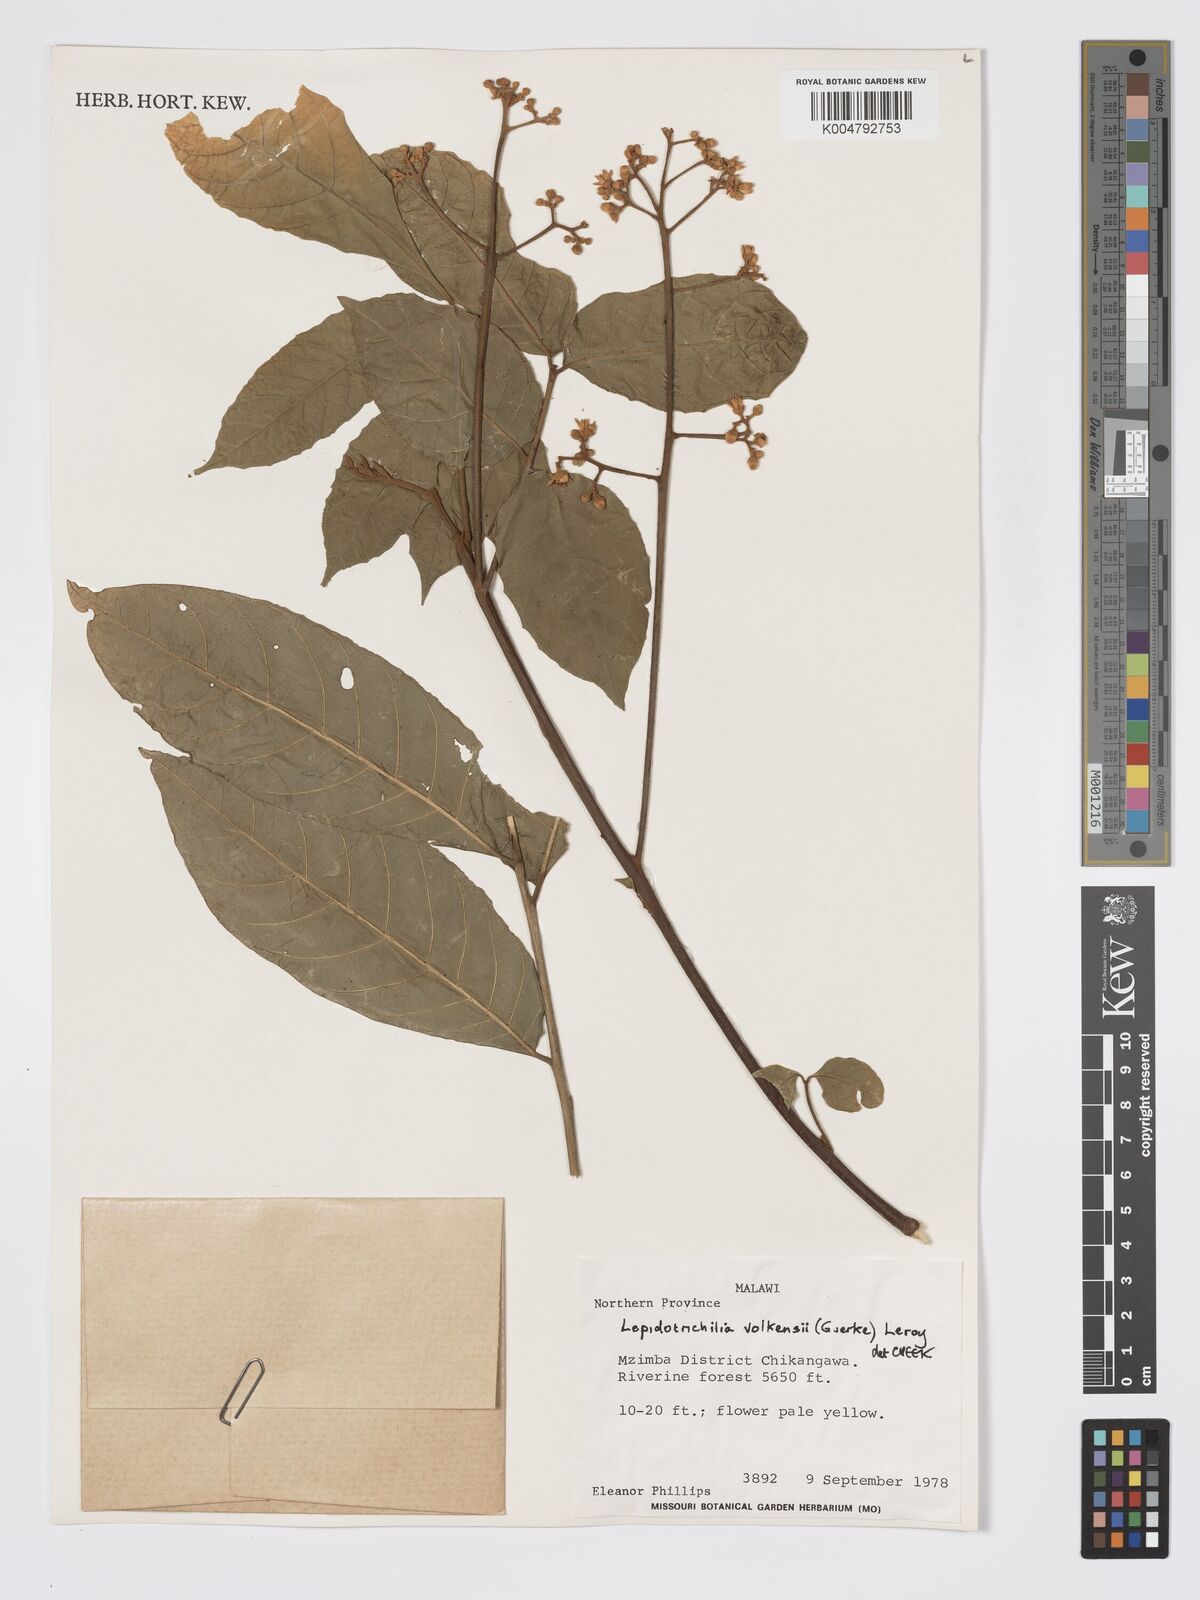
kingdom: Plantae
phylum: Tracheophyta
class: Magnoliopsida
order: Sapindales
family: Meliaceae
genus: Lepidotrichilia
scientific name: Lepidotrichilia volkensii
